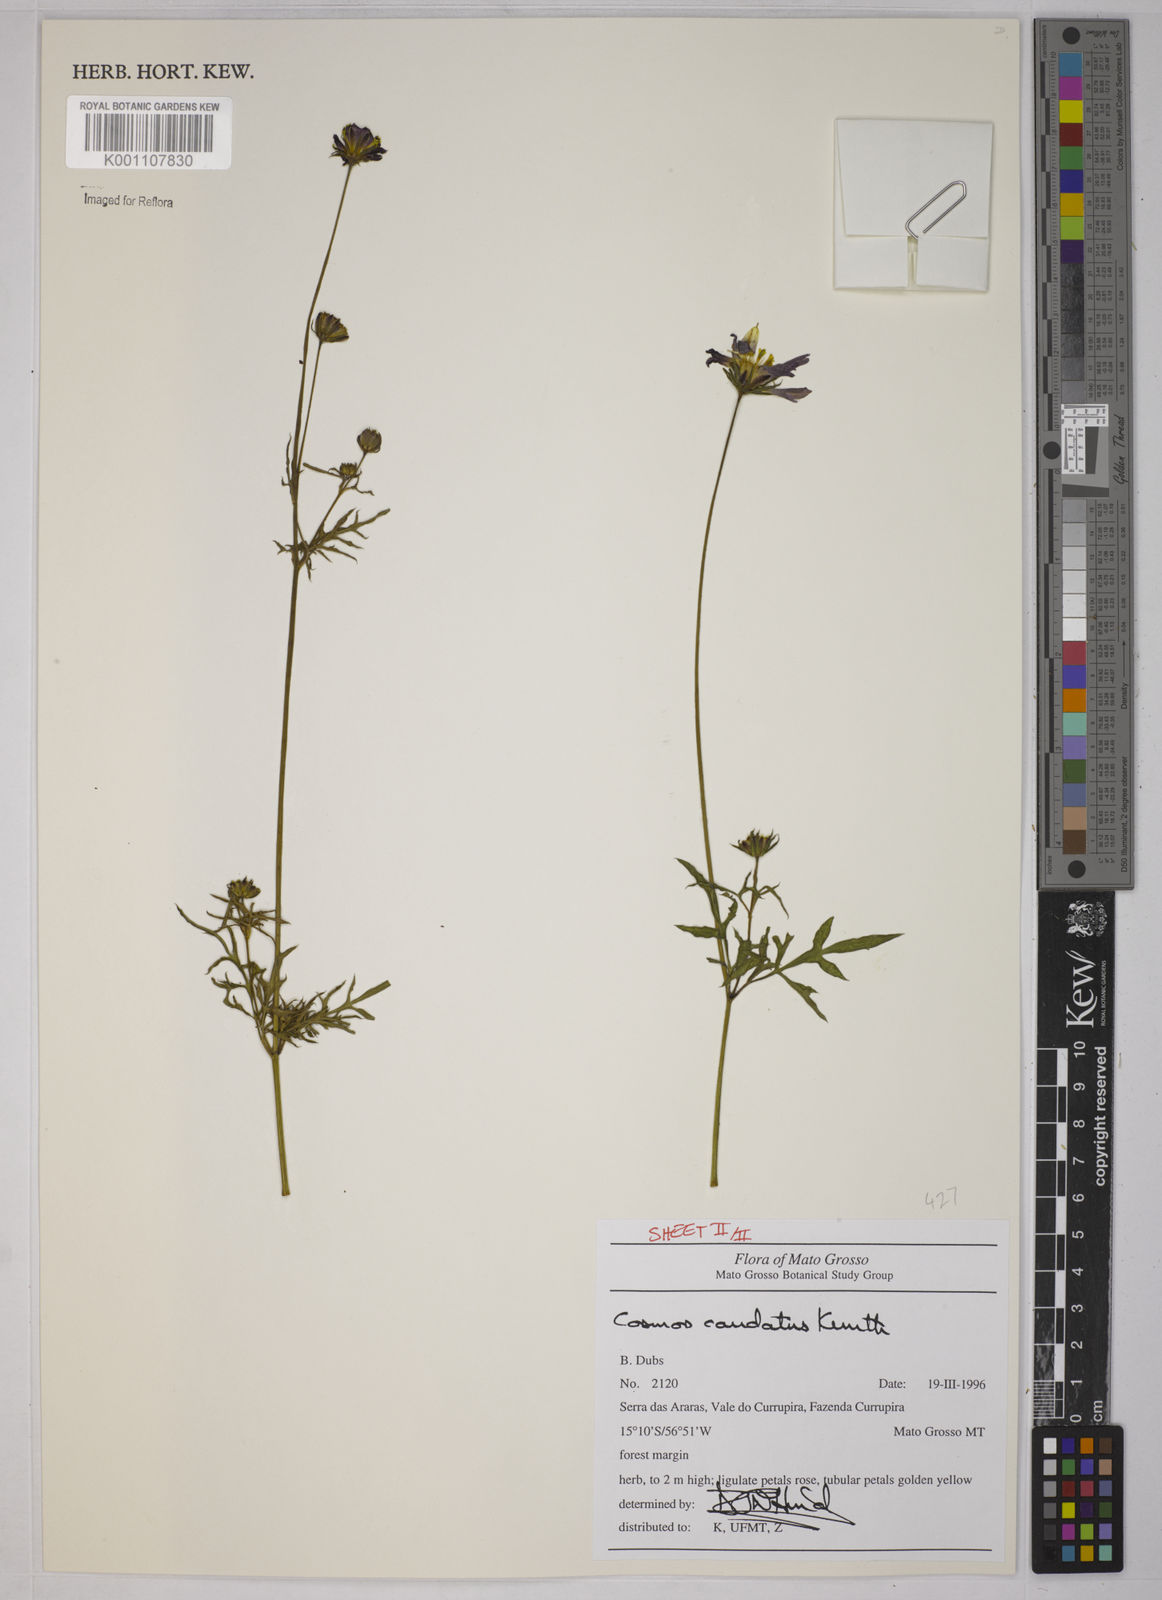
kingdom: Plantae
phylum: Tracheophyta
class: Magnoliopsida
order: Asterales
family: Asteraceae
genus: Cosmos
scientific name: Cosmos caudatus
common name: Wild cosmos
